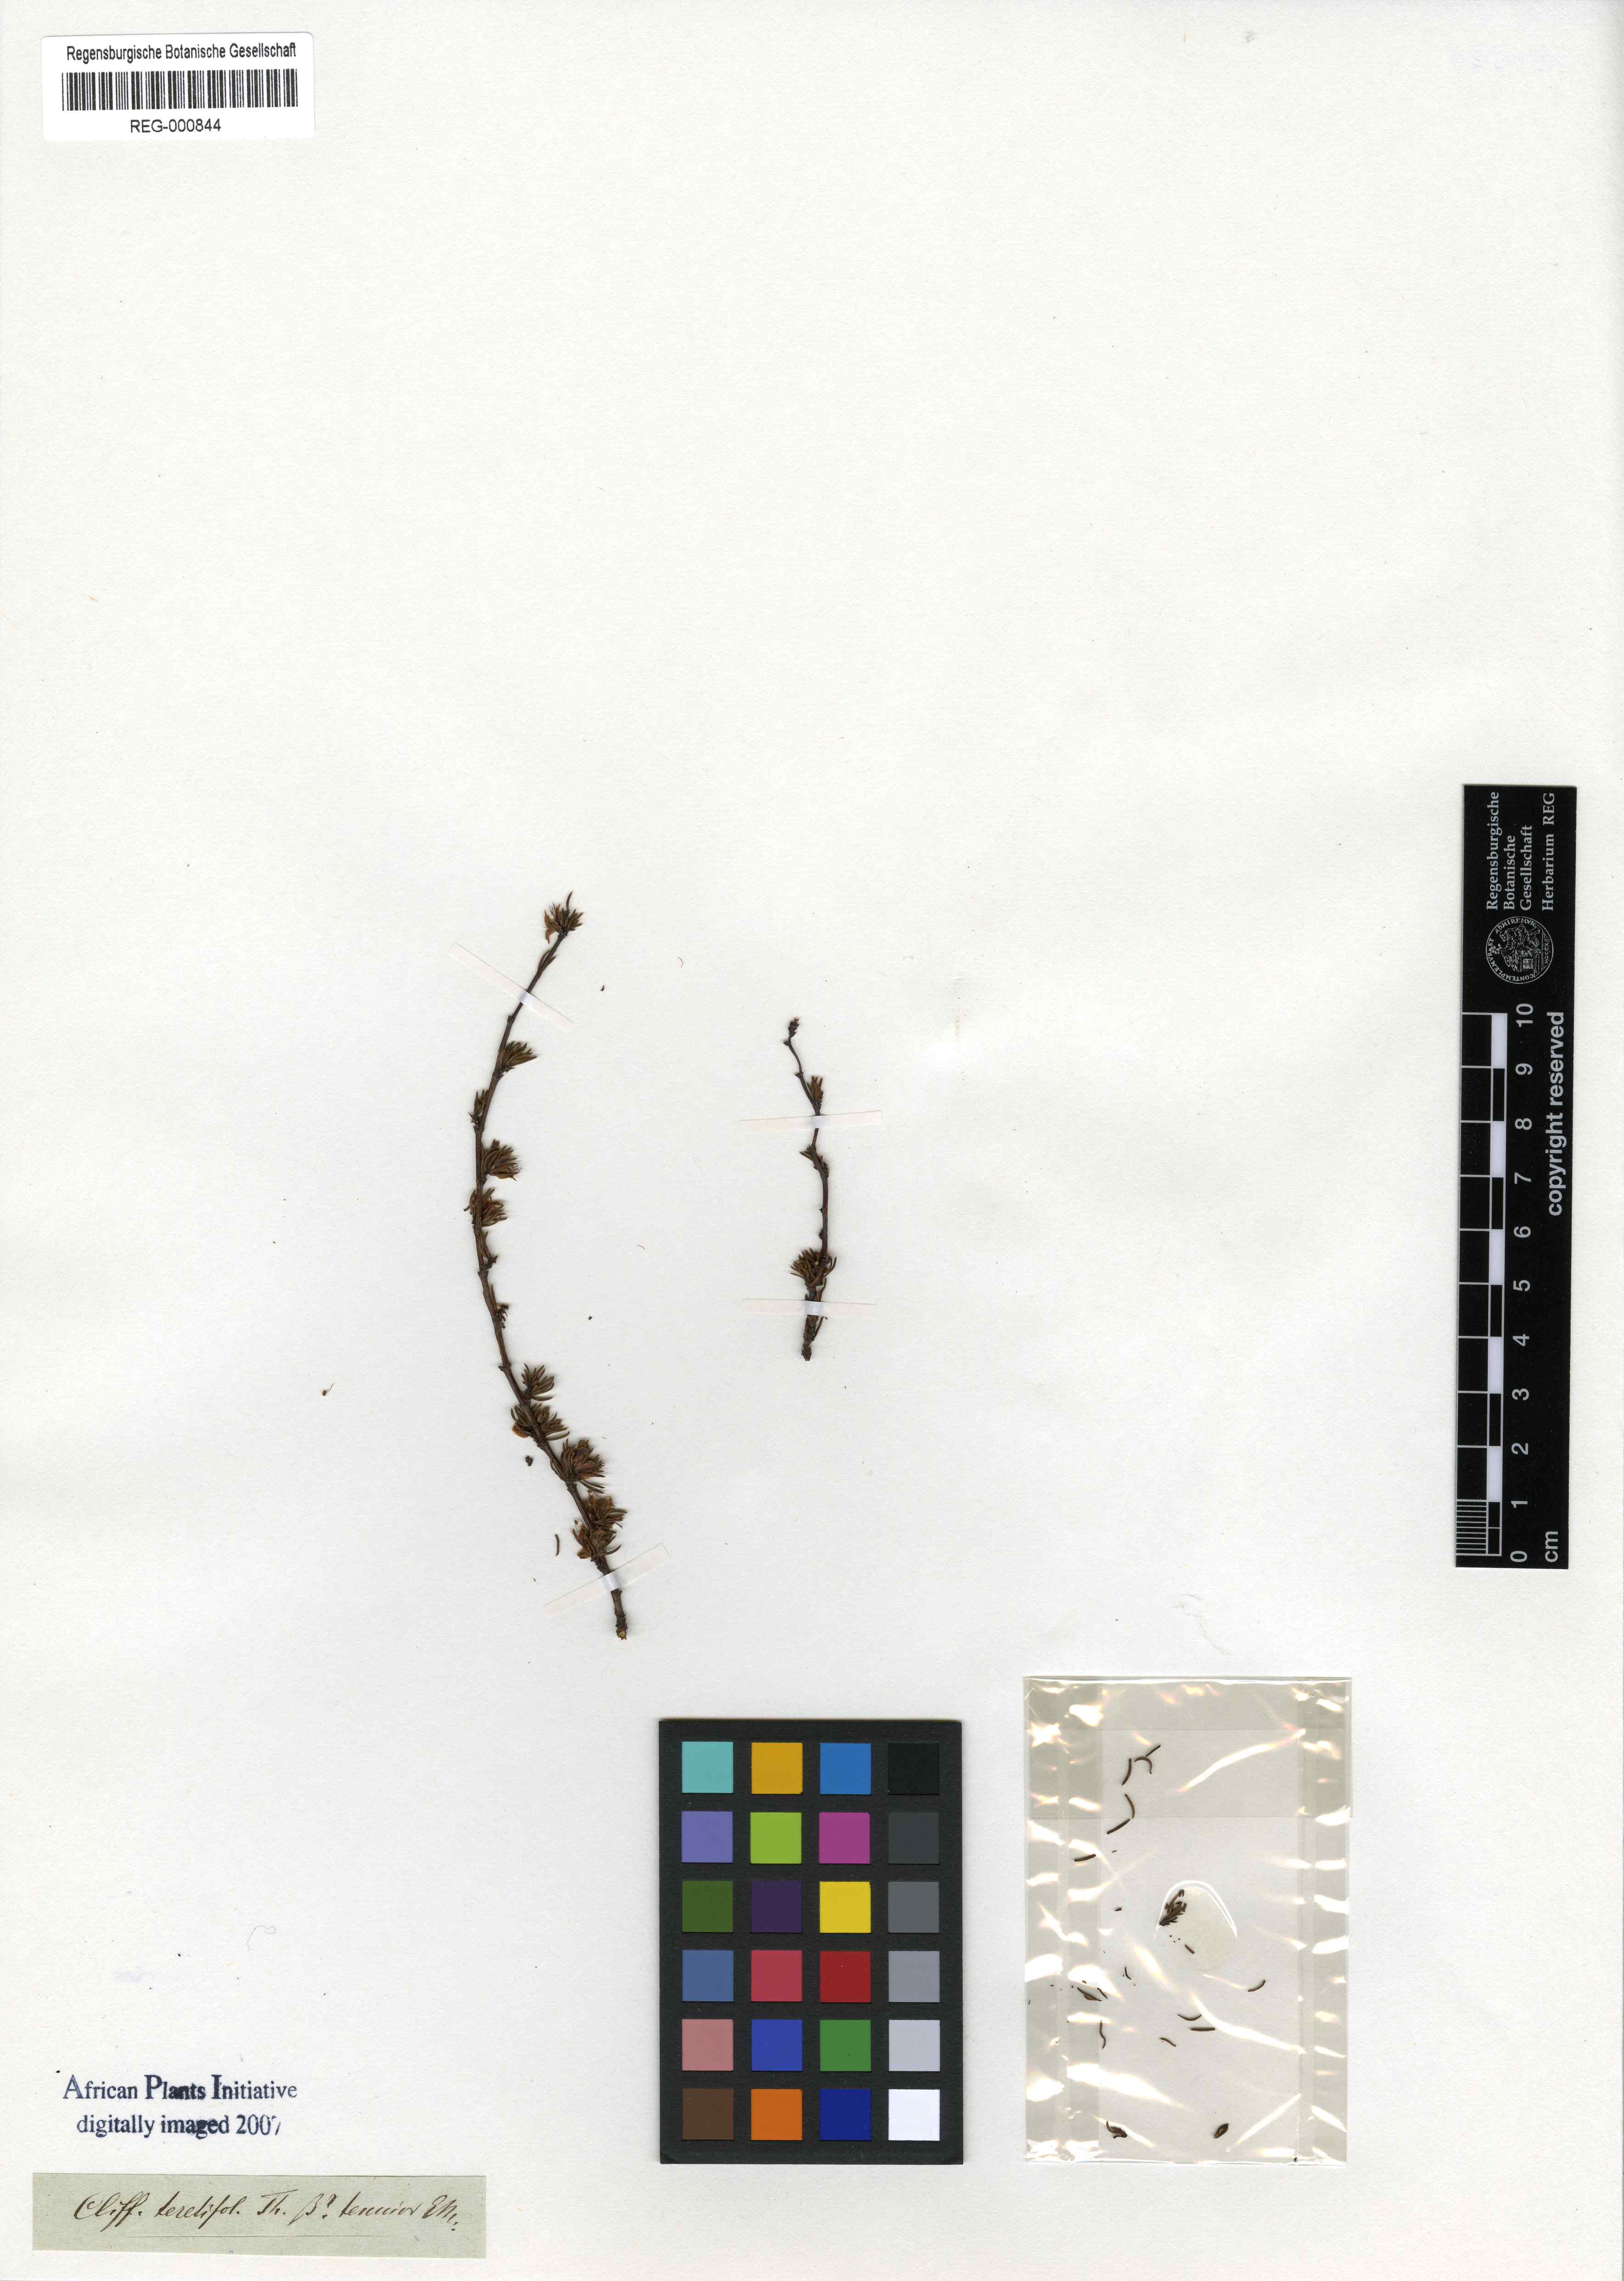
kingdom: Plantae
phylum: Tracheophyta
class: Magnoliopsida
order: Rosales
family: Rosaceae
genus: Cliffortia
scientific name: Cliffortia teretifolia
